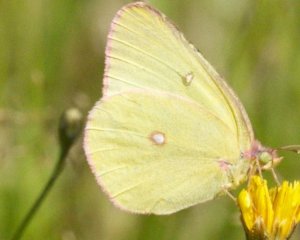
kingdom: Animalia
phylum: Arthropoda
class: Insecta
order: Lepidoptera
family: Pieridae
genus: Colias
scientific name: Colias interior
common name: Pink-edged Sulphur
